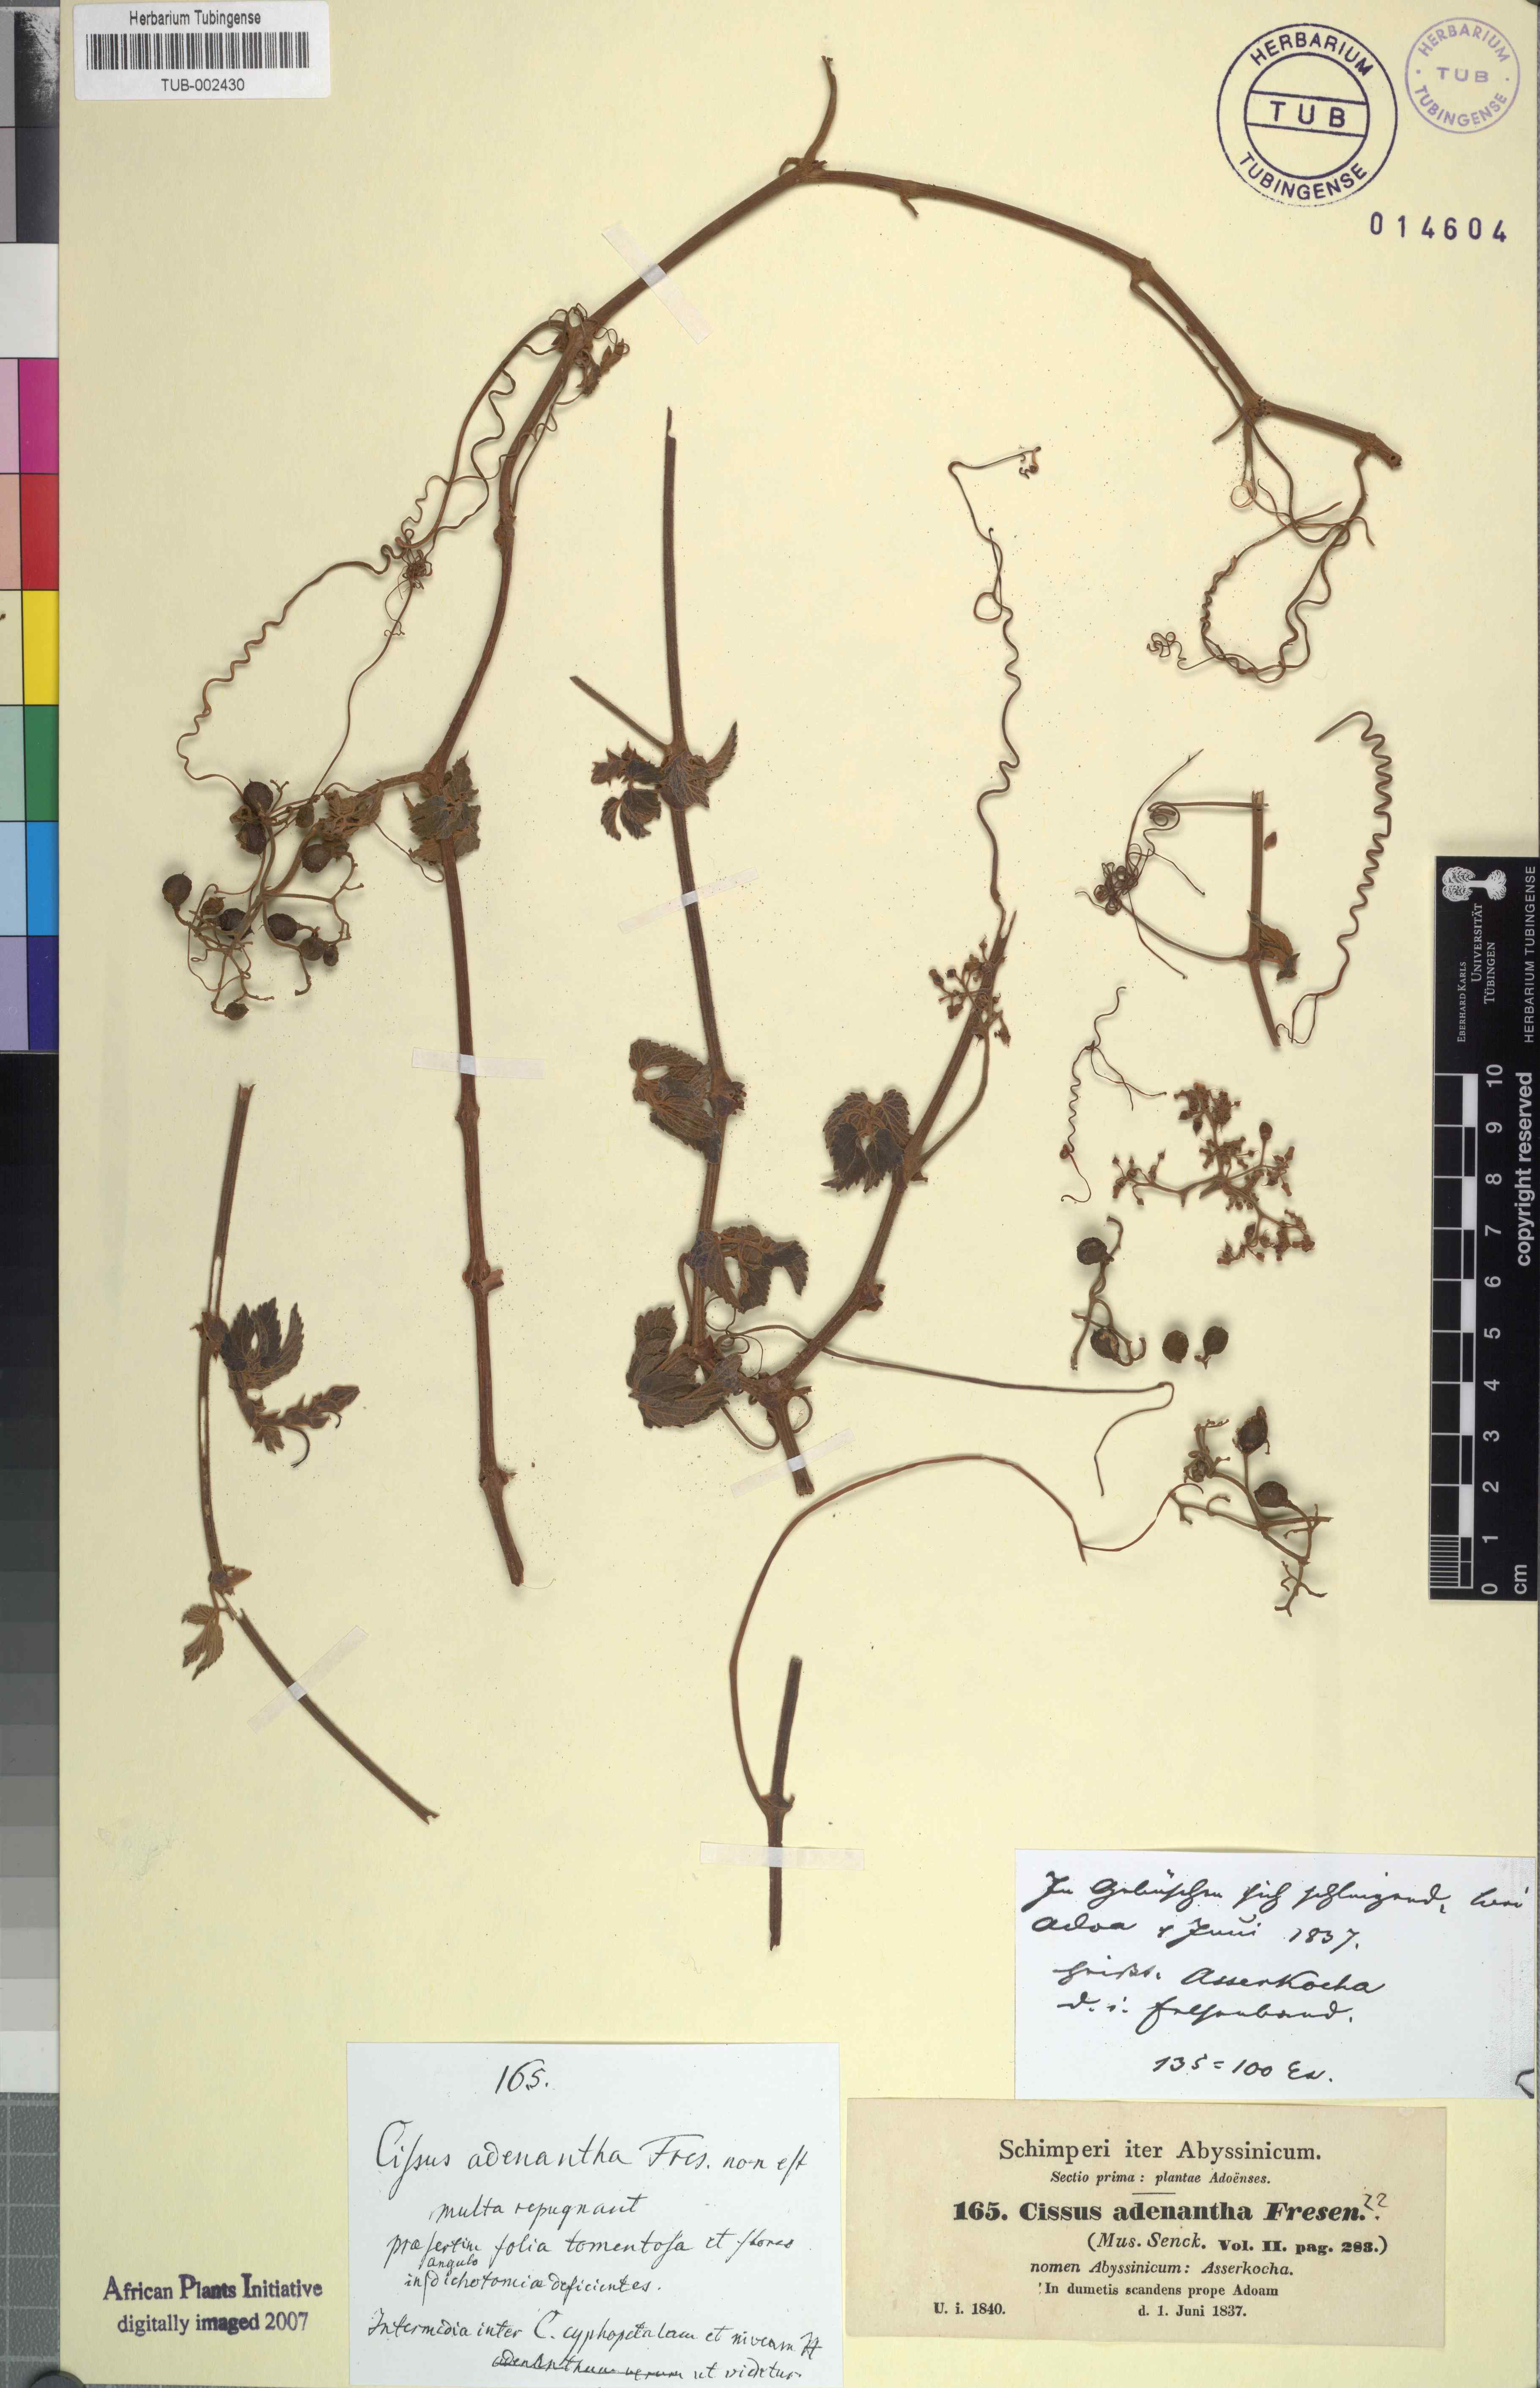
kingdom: Plantae
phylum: Tracheophyta
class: Magnoliopsida
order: Vitales
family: Vitaceae
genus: Cyphostemma
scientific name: Cyphostemma adenanthum
